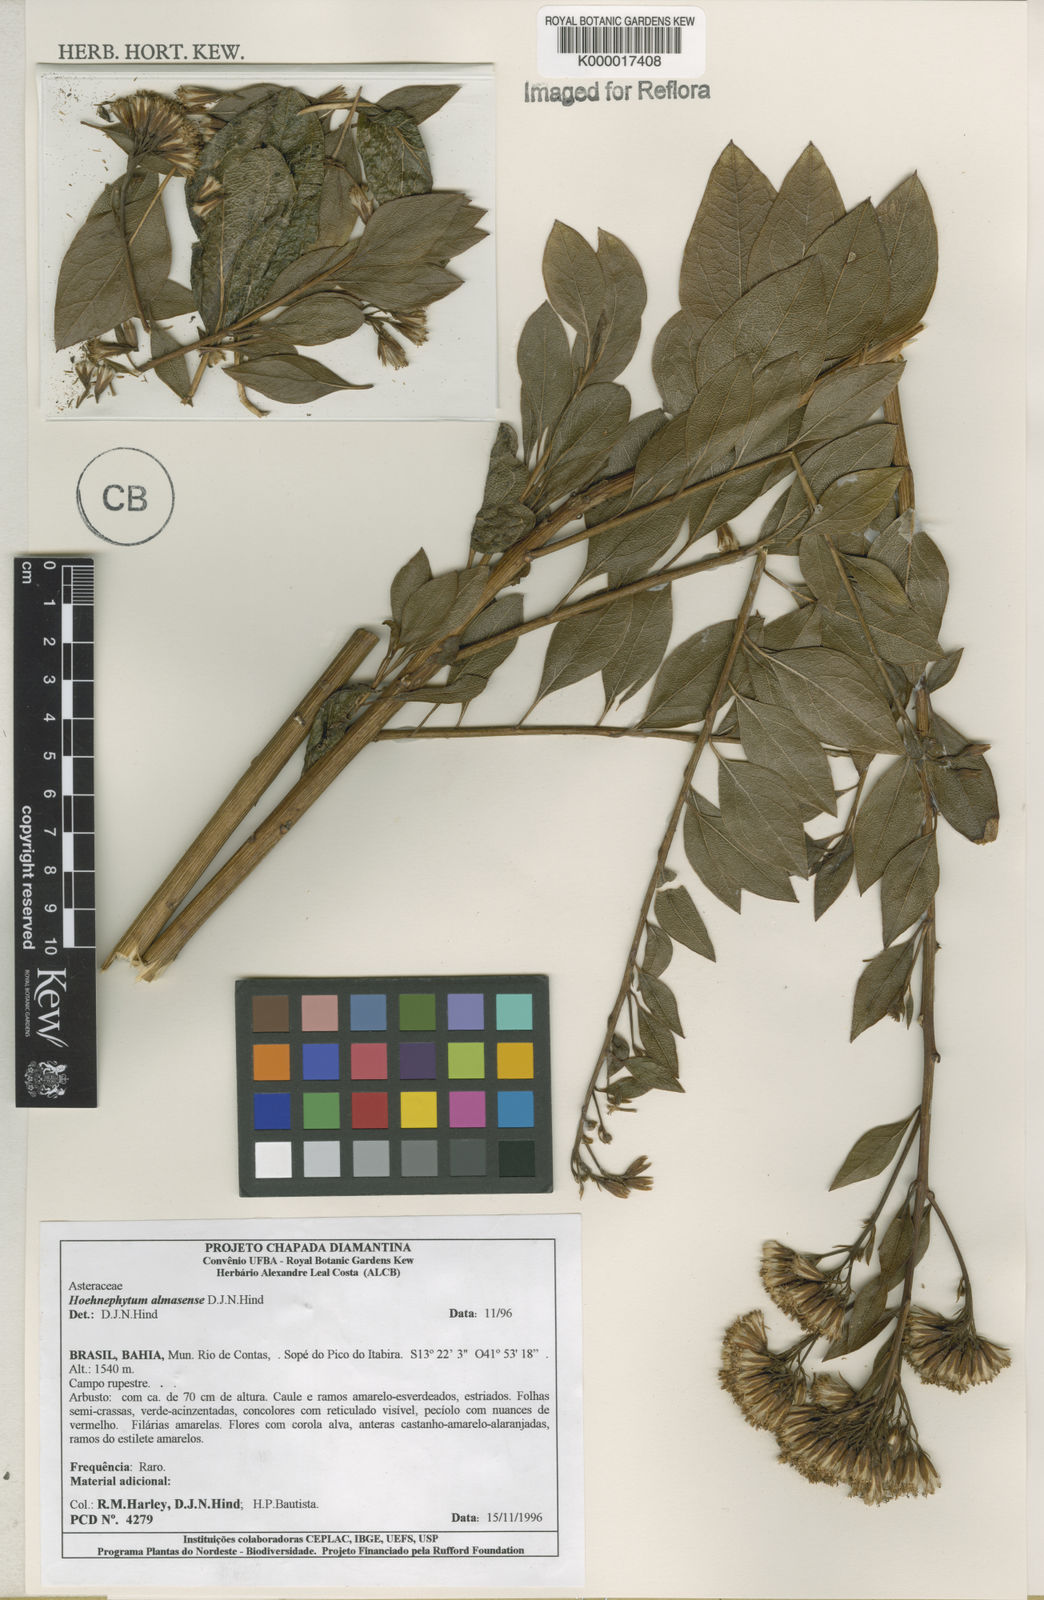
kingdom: Plantae
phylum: Tracheophyta
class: Magnoliopsida
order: Asterales
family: Asteraceae
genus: Hoehnephytum
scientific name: Hoehnephytum almasense
